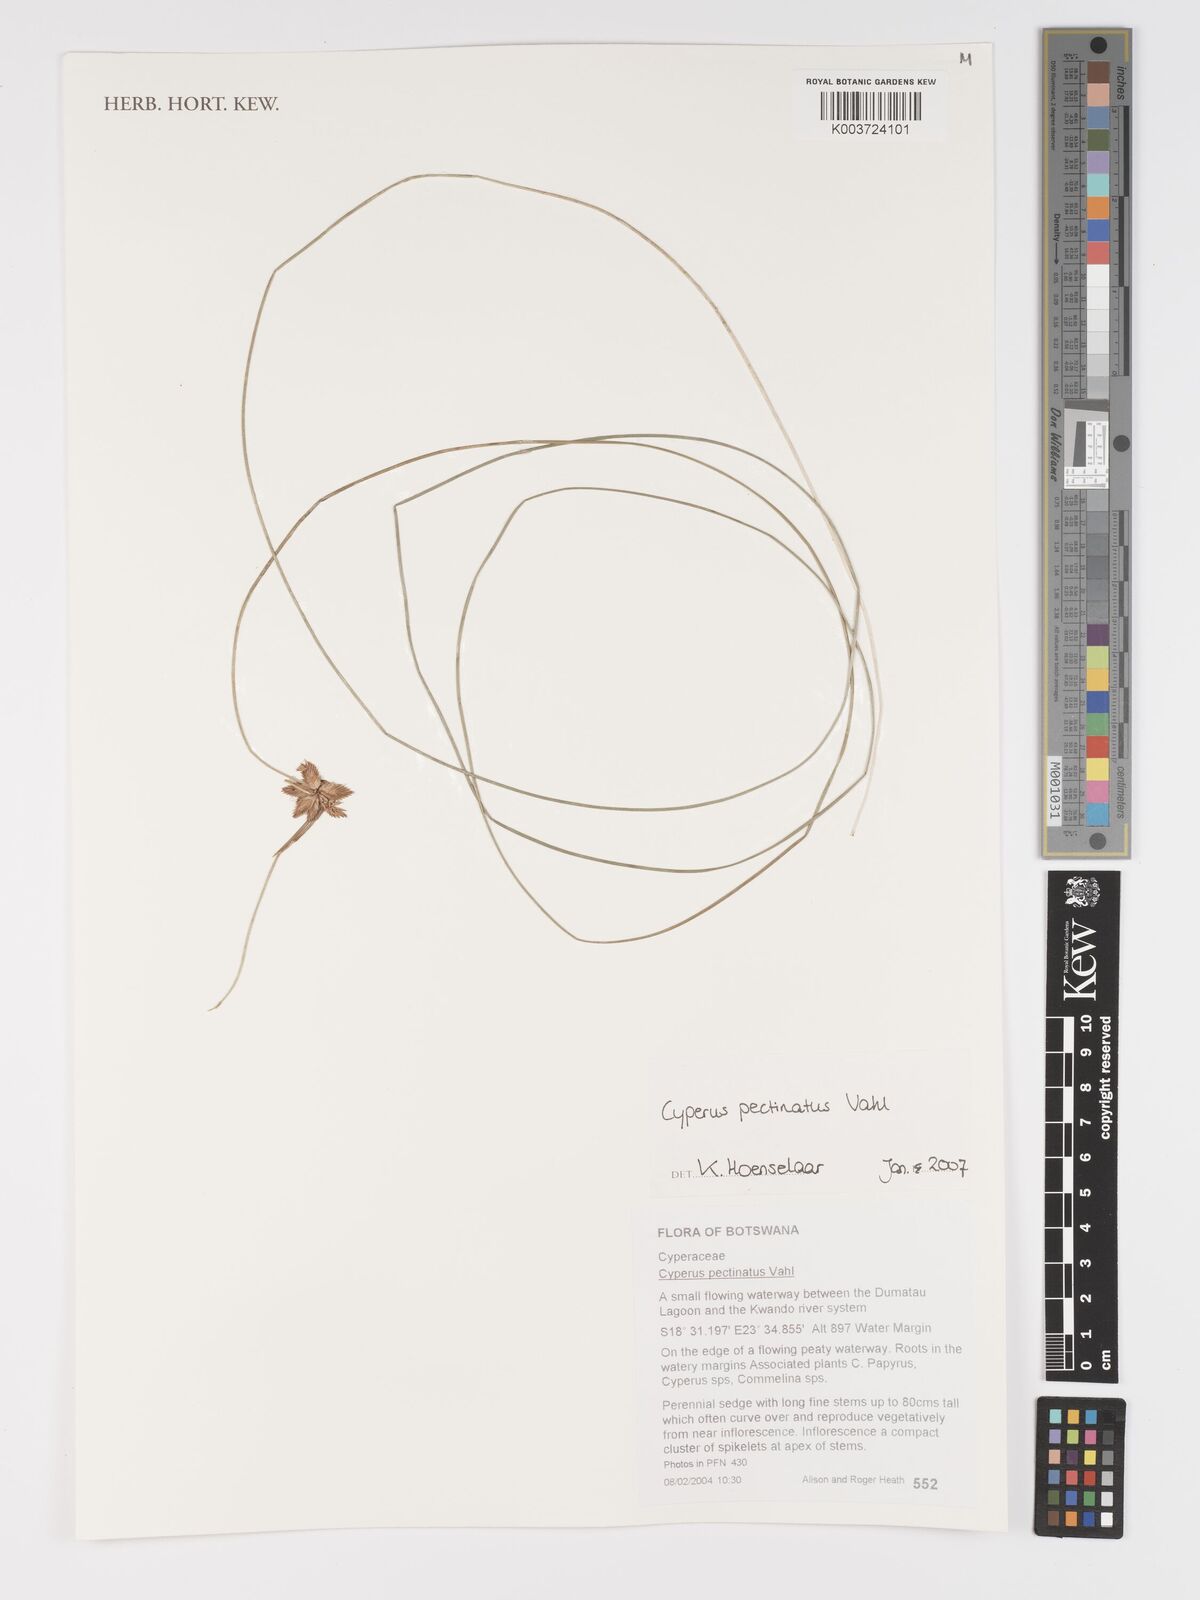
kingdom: Plantae
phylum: Tracheophyta
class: Liliopsida
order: Poales
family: Cyperaceae
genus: Cyperus
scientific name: Cyperus compressus
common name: Poorland flatsedge
